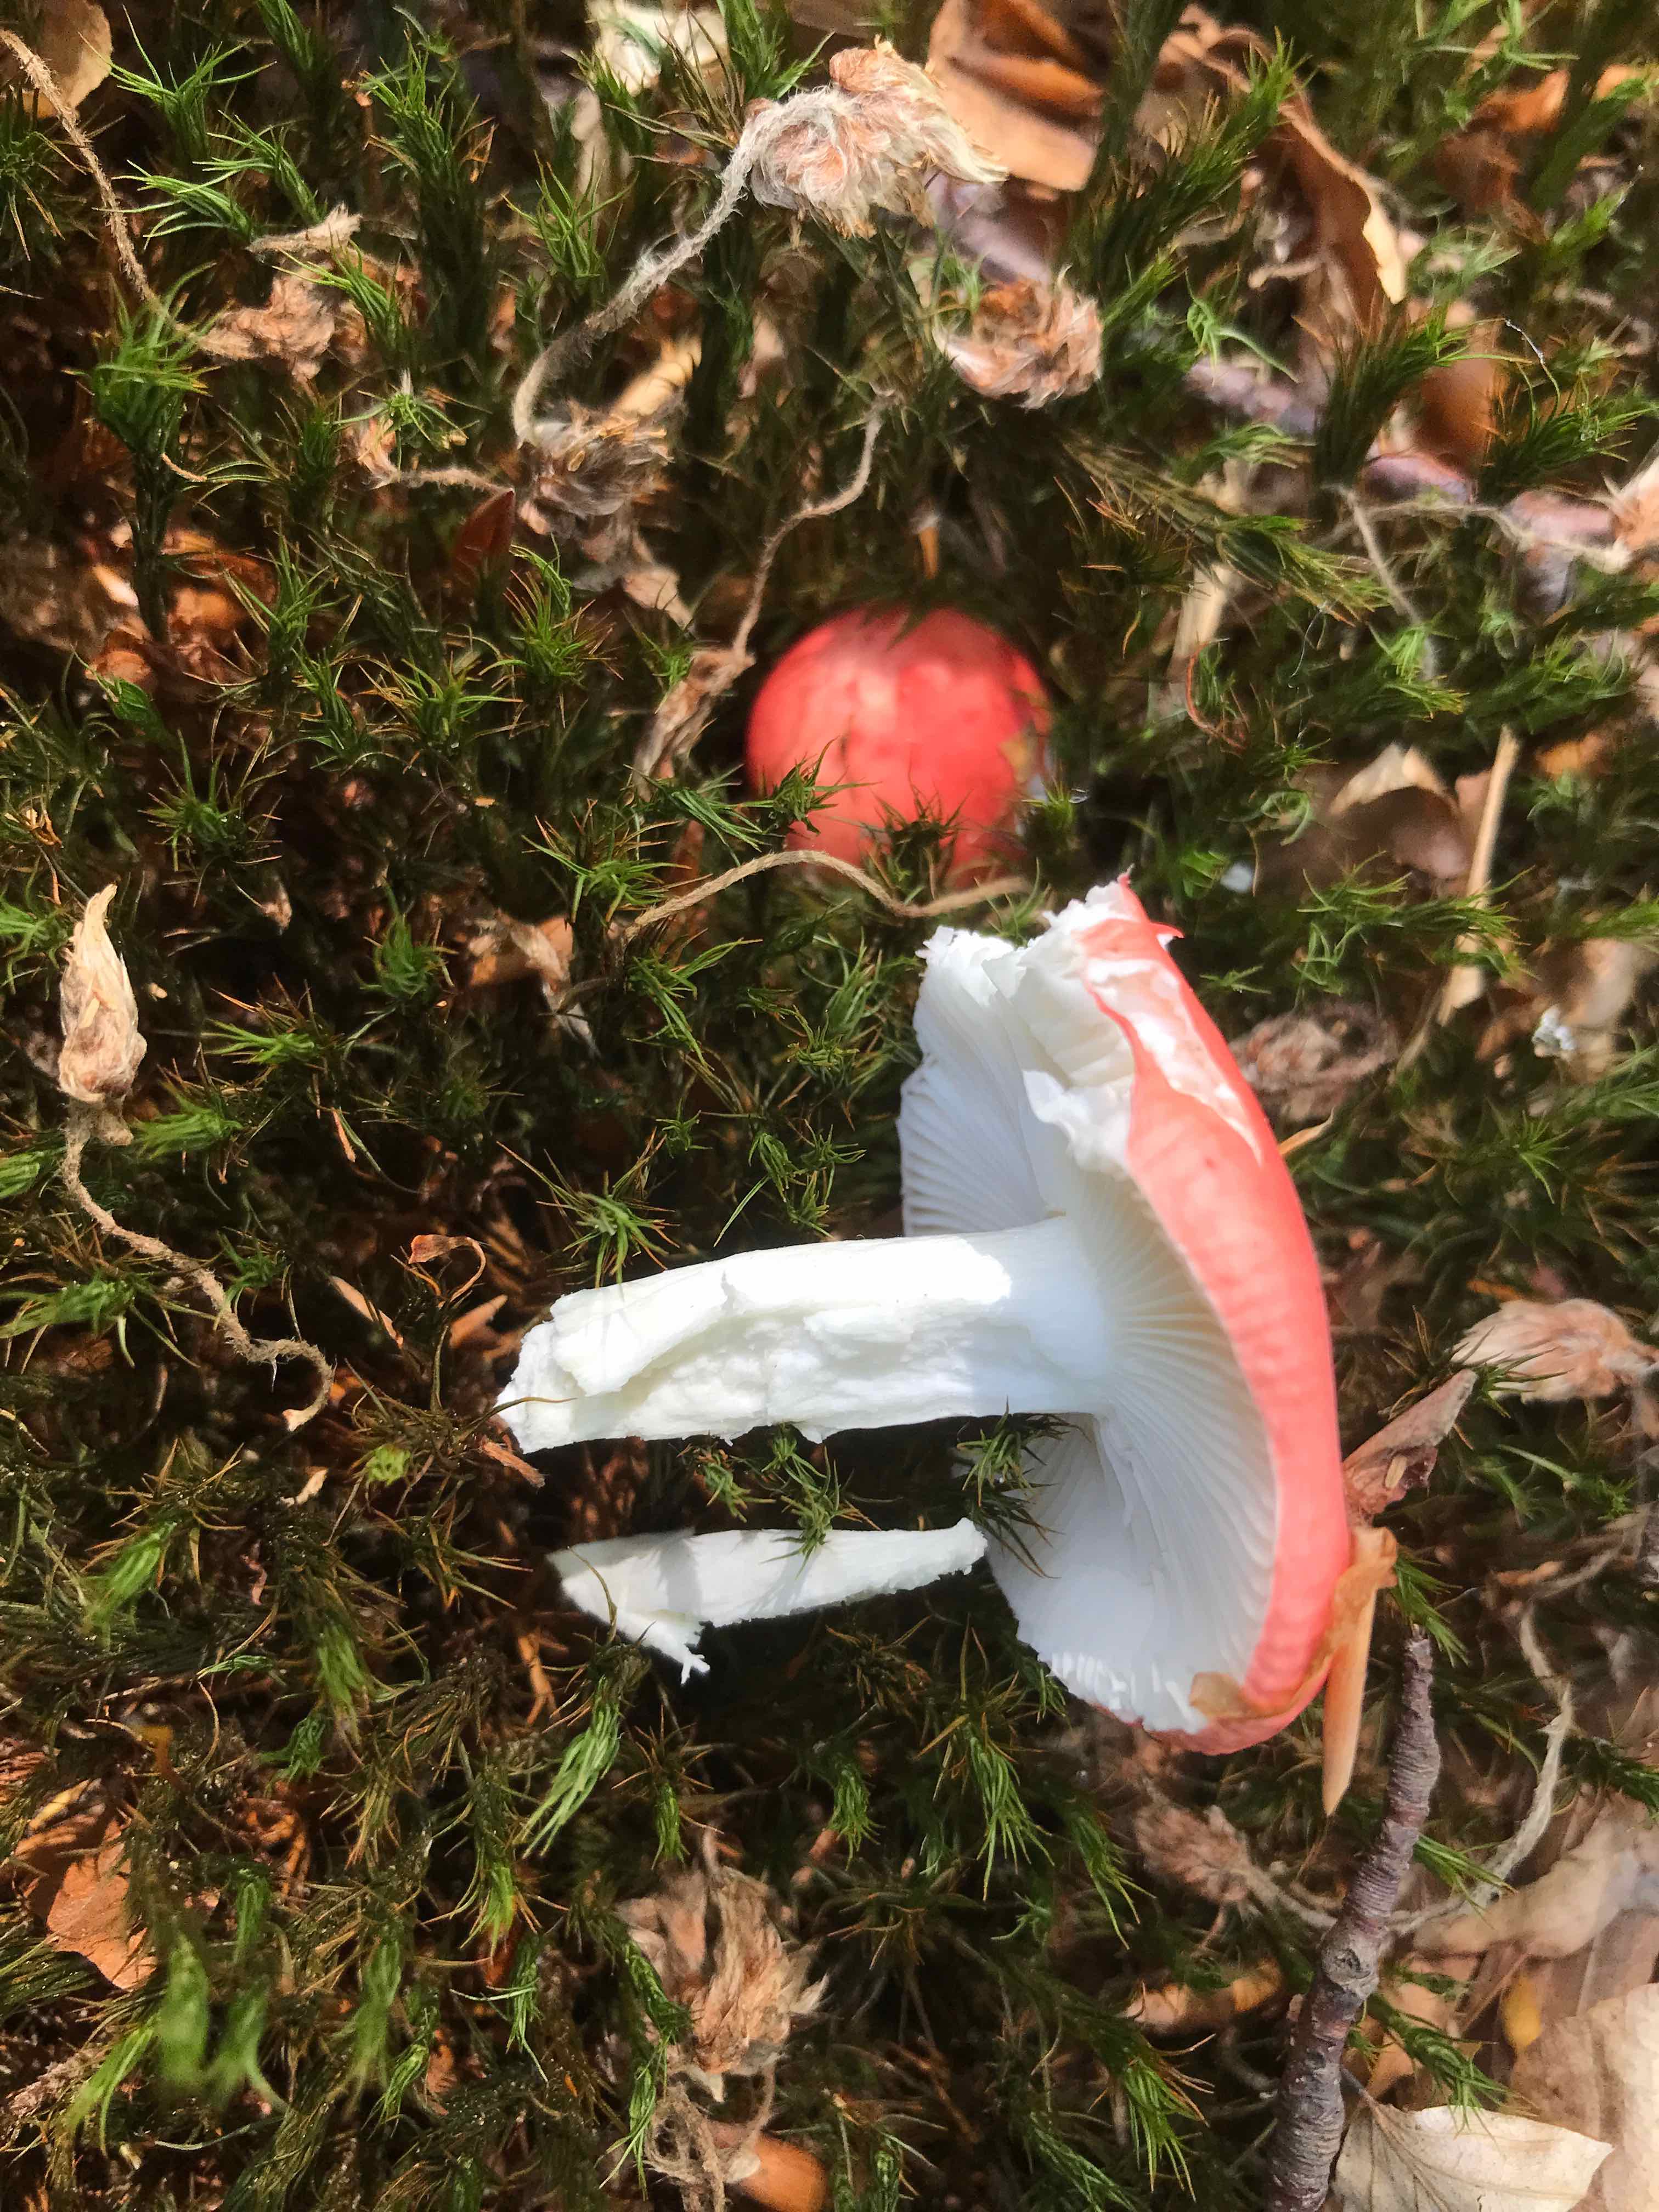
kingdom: Fungi
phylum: Basidiomycota
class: Agaricomycetes
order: Russulales
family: Russulaceae
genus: Russula
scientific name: Russula nobilis
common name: lille gift-skørhat
